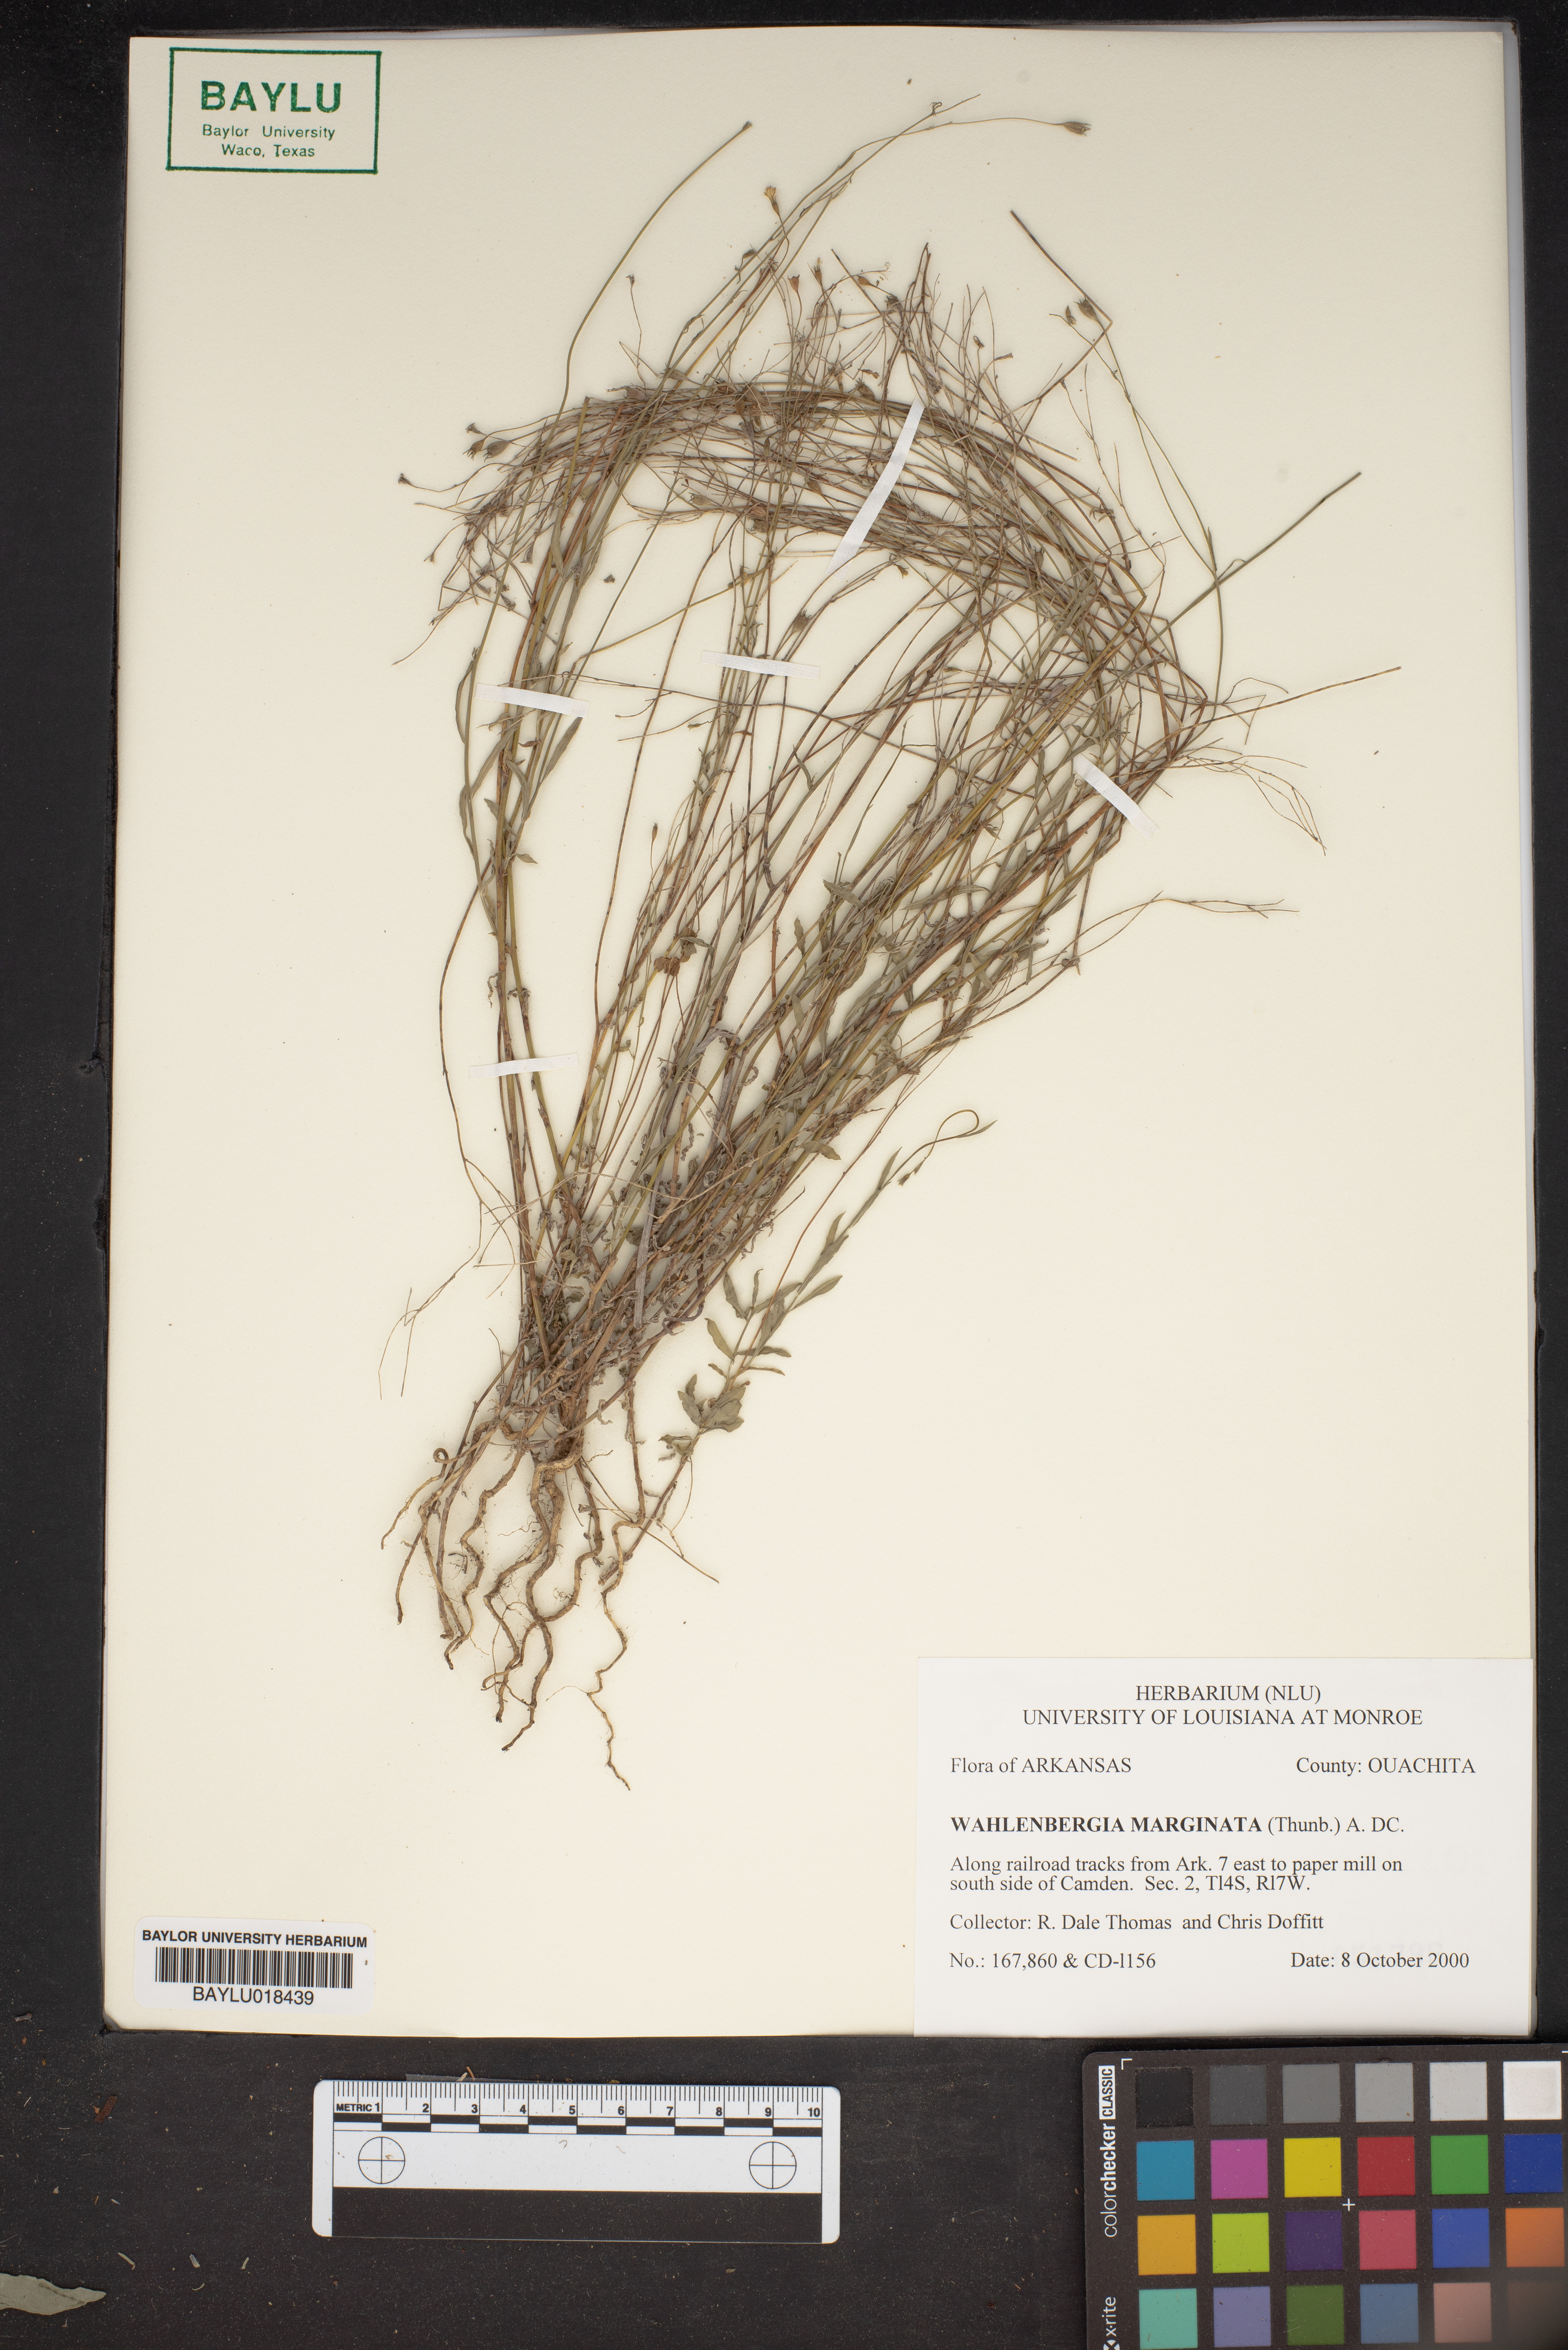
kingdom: Plantae
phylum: Tracheophyta
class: Magnoliopsida
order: Asterales
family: Campanulaceae
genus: Wahlenbergia
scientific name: Wahlenbergia marginata
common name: Southern rockbell
